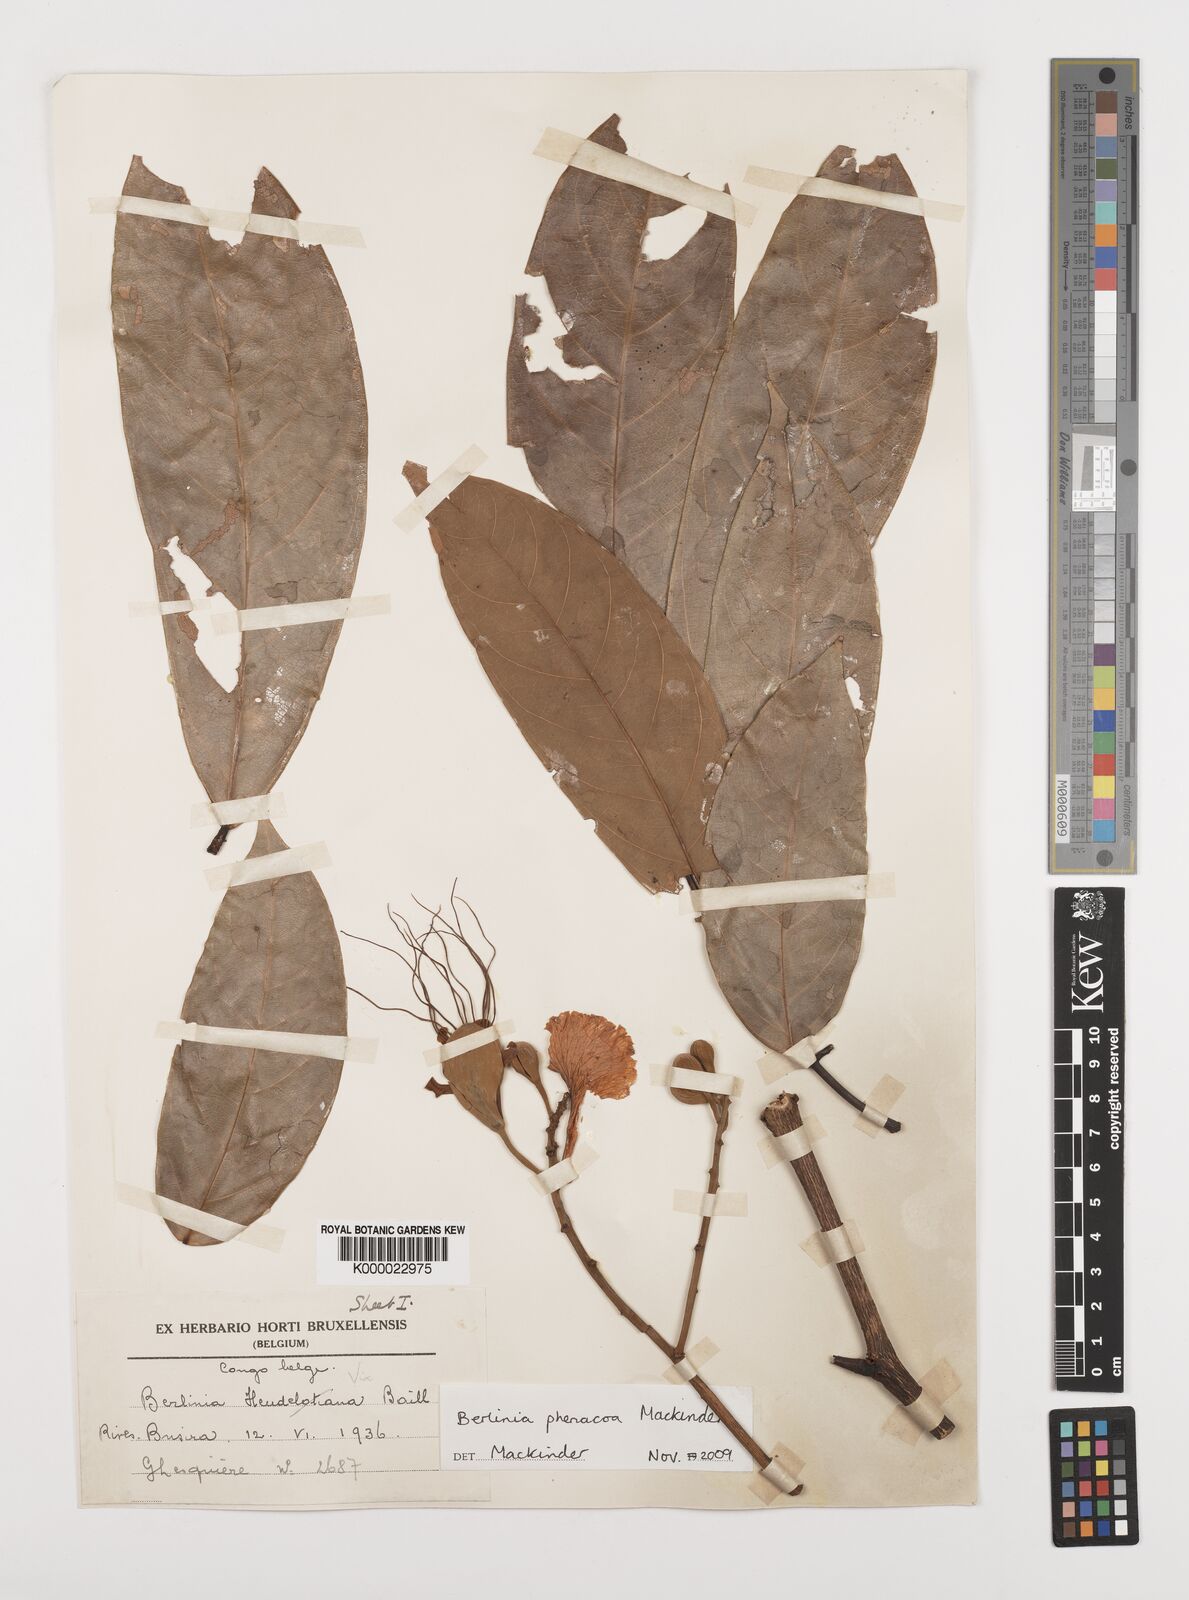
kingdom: Plantae
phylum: Tracheophyta
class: Magnoliopsida
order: Fabales
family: Fabaceae
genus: Berlinia
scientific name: Berlinia phenacoa
